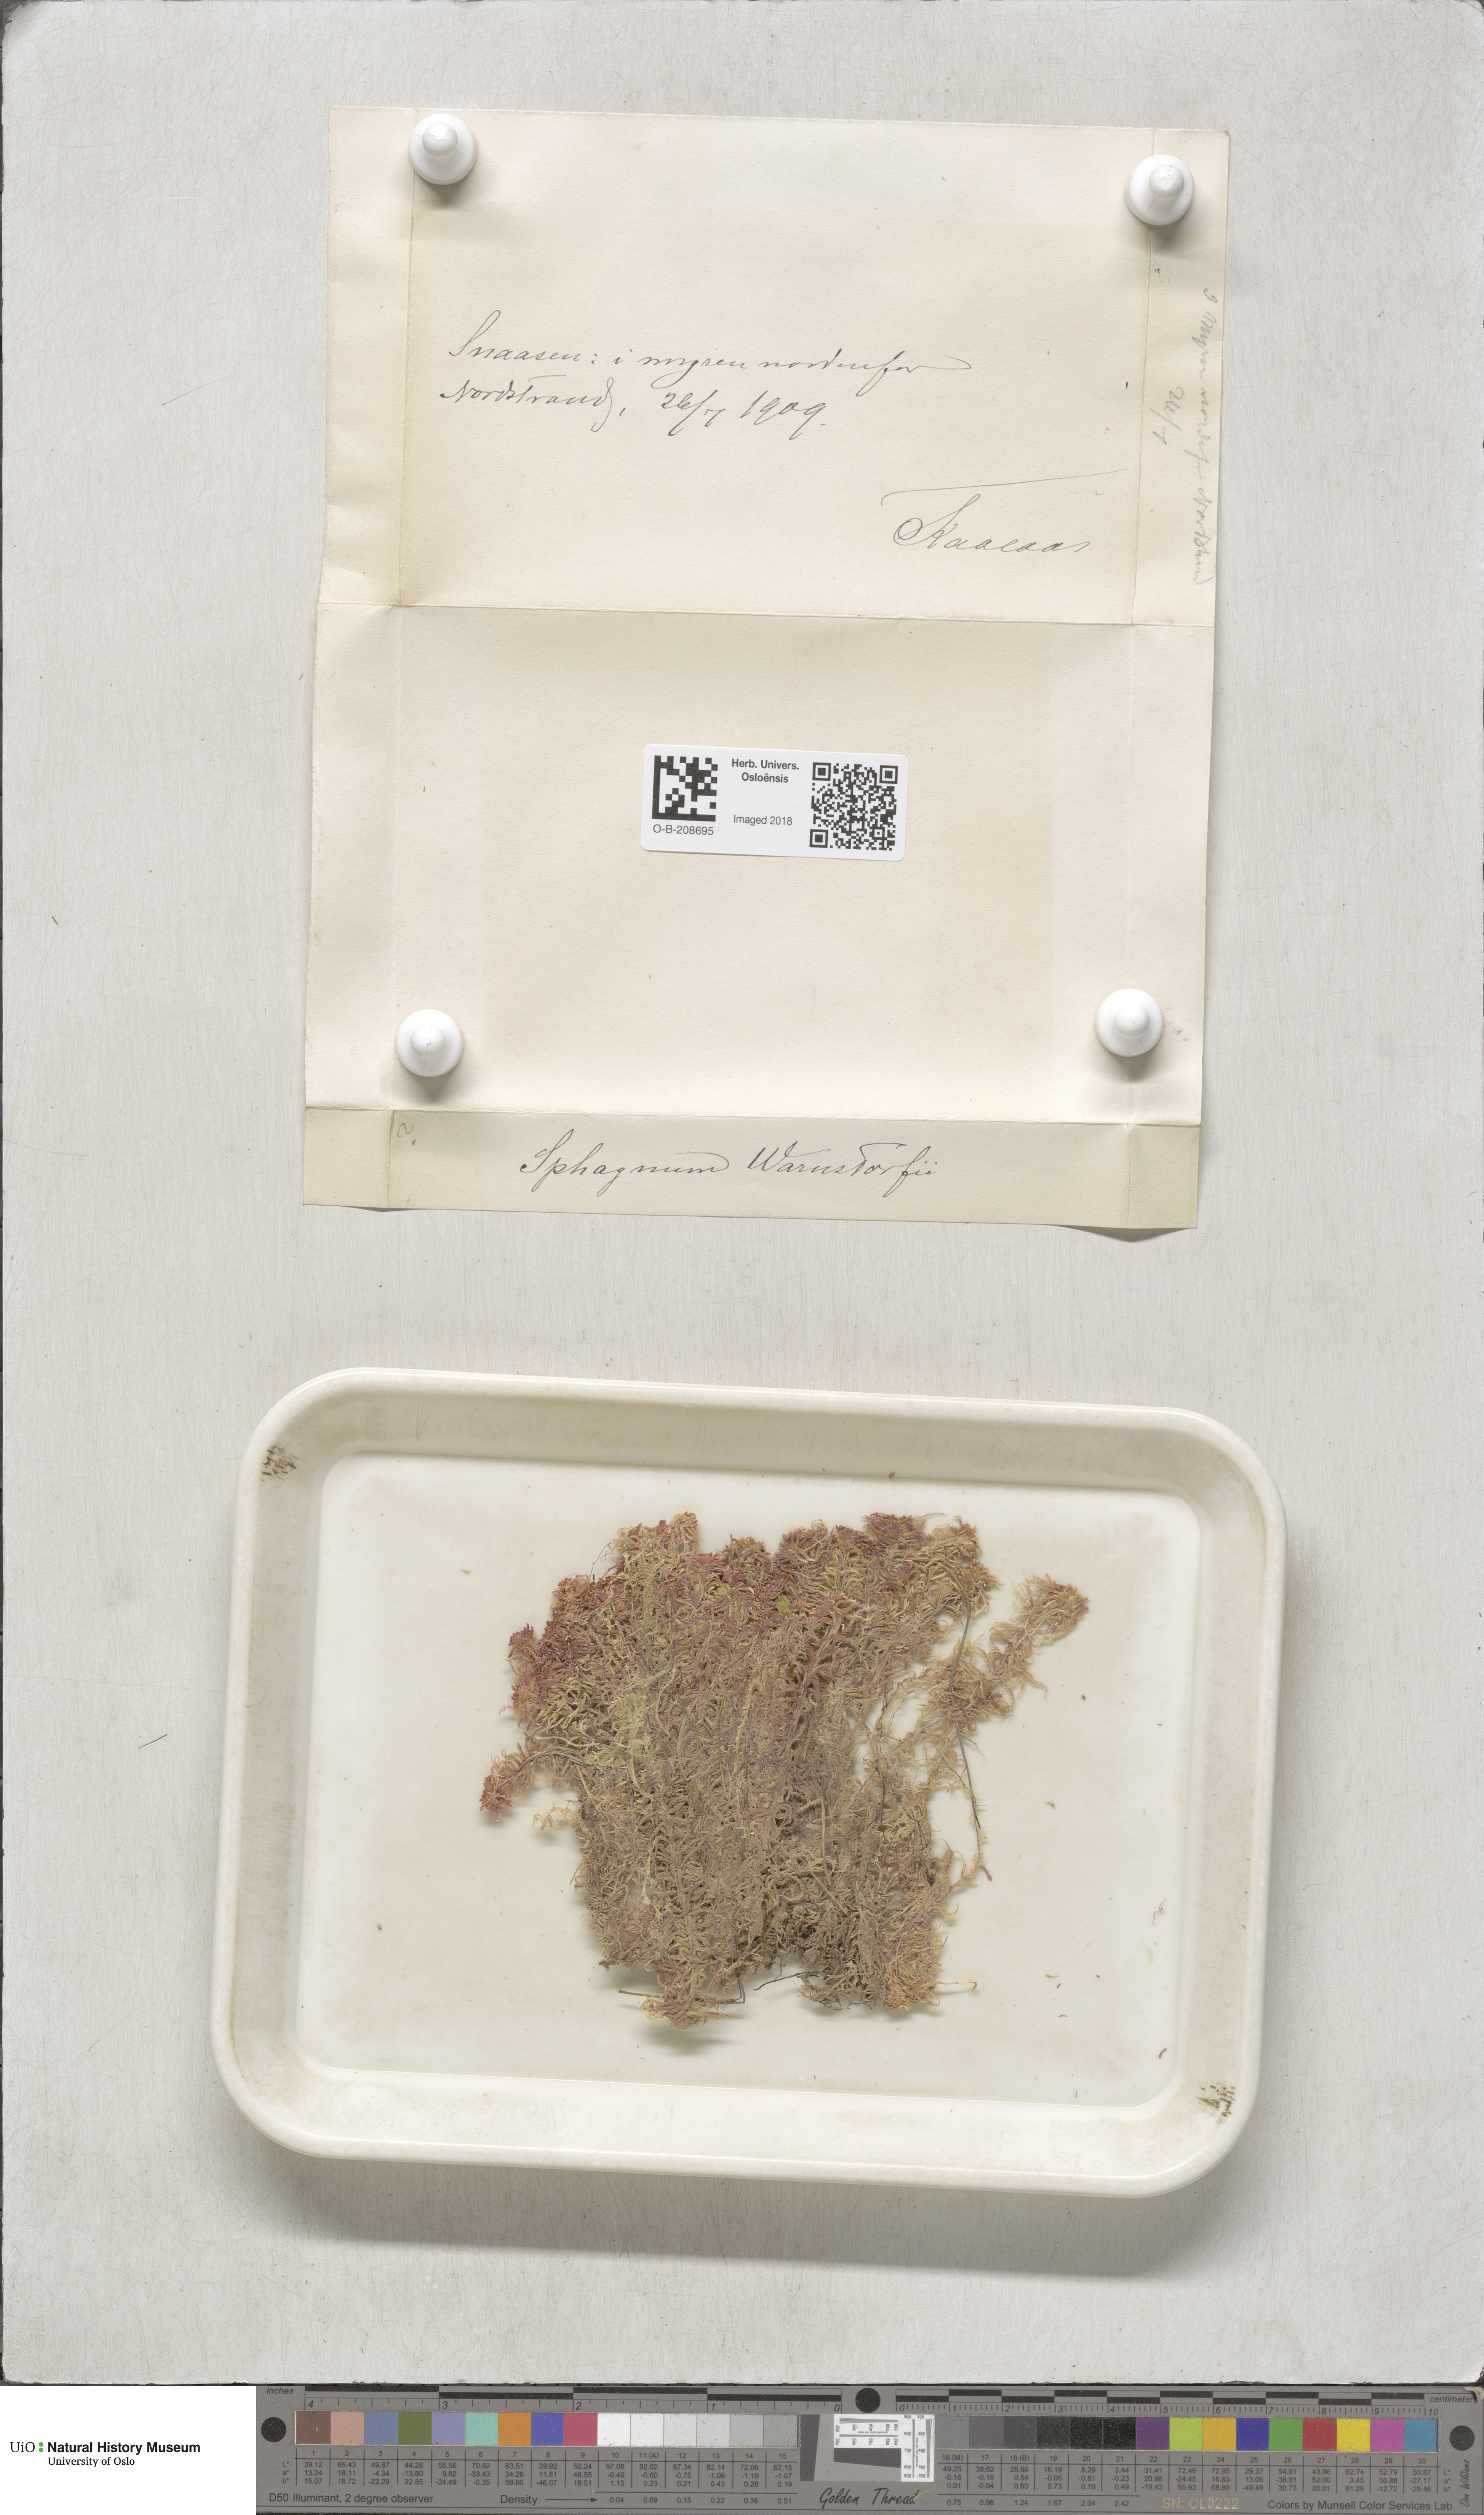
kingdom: Plantae
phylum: Bryophyta
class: Sphagnopsida
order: Sphagnales
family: Sphagnaceae
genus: Sphagnum
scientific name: Sphagnum warnstorfii
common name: Warnstorf's peat moss
